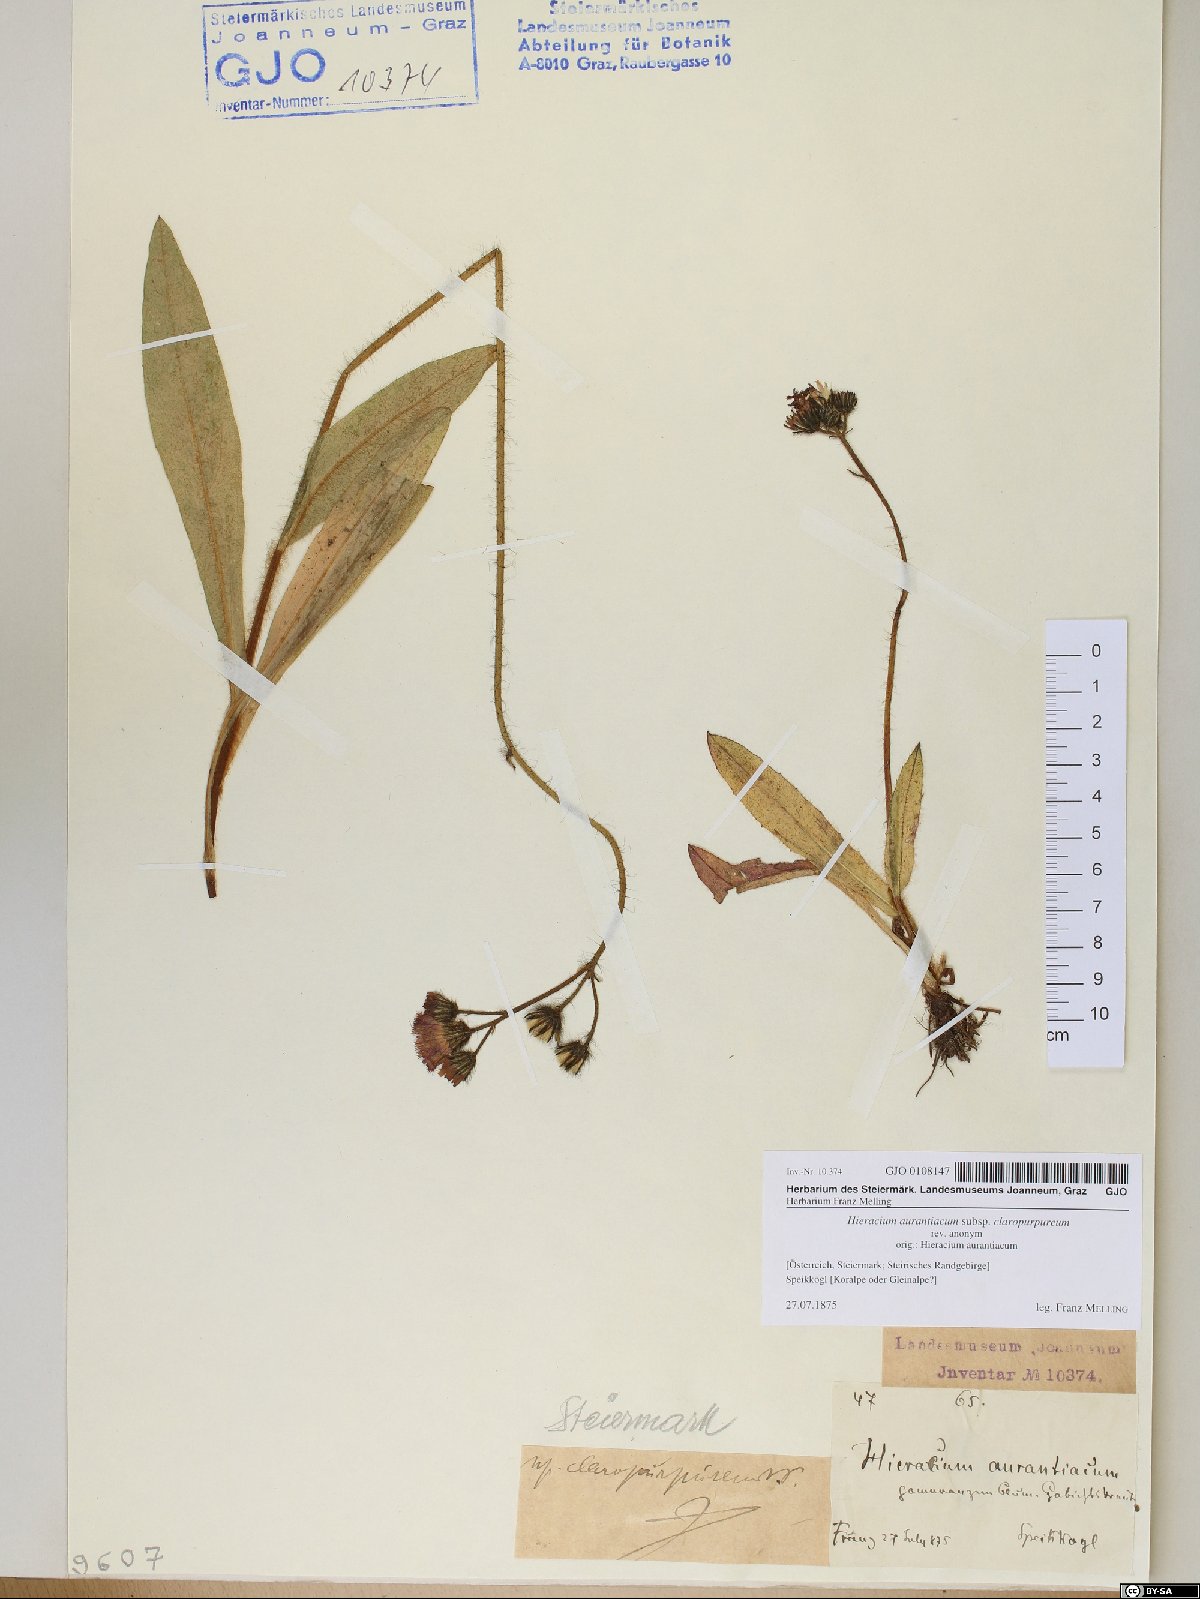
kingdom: Plantae
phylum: Tracheophyta
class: Magnoliopsida
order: Asterales
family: Asteraceae
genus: Pilosella
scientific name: Pilosella aurantiaca
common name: Fox-and-cubs
